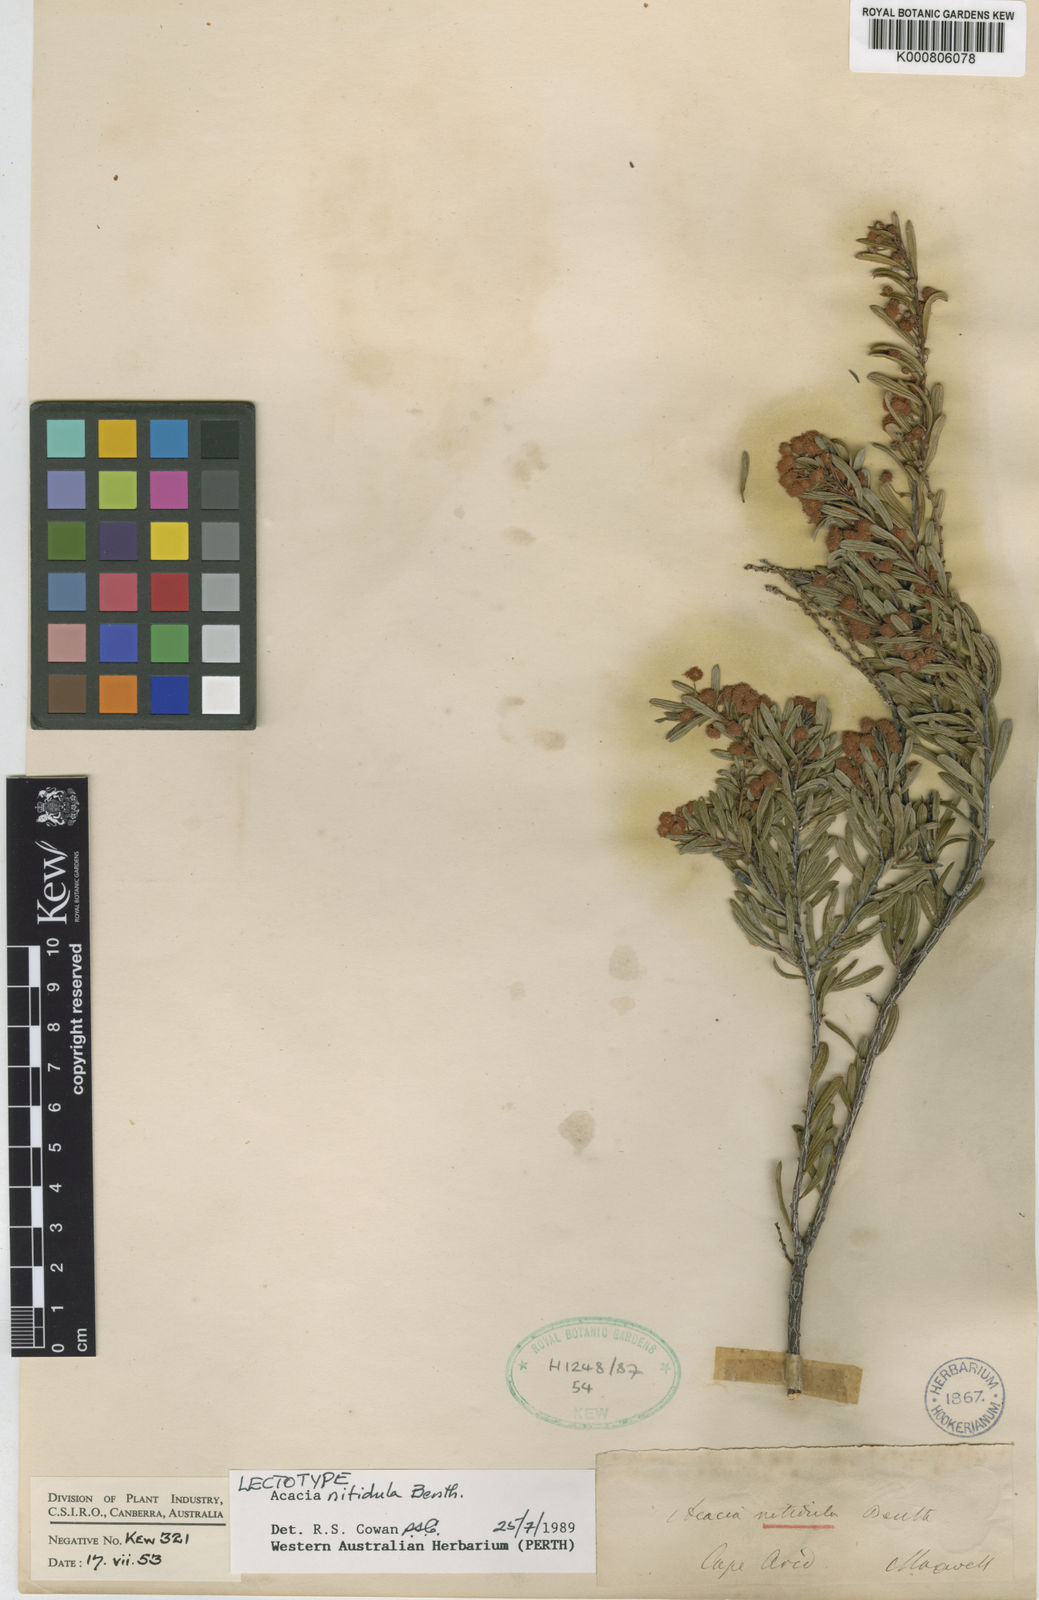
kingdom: Plantae
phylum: Tracheophyta
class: Magnoliopsida
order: Fabales
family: Fabaceae
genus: Acacia
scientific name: Acacia nitidula
